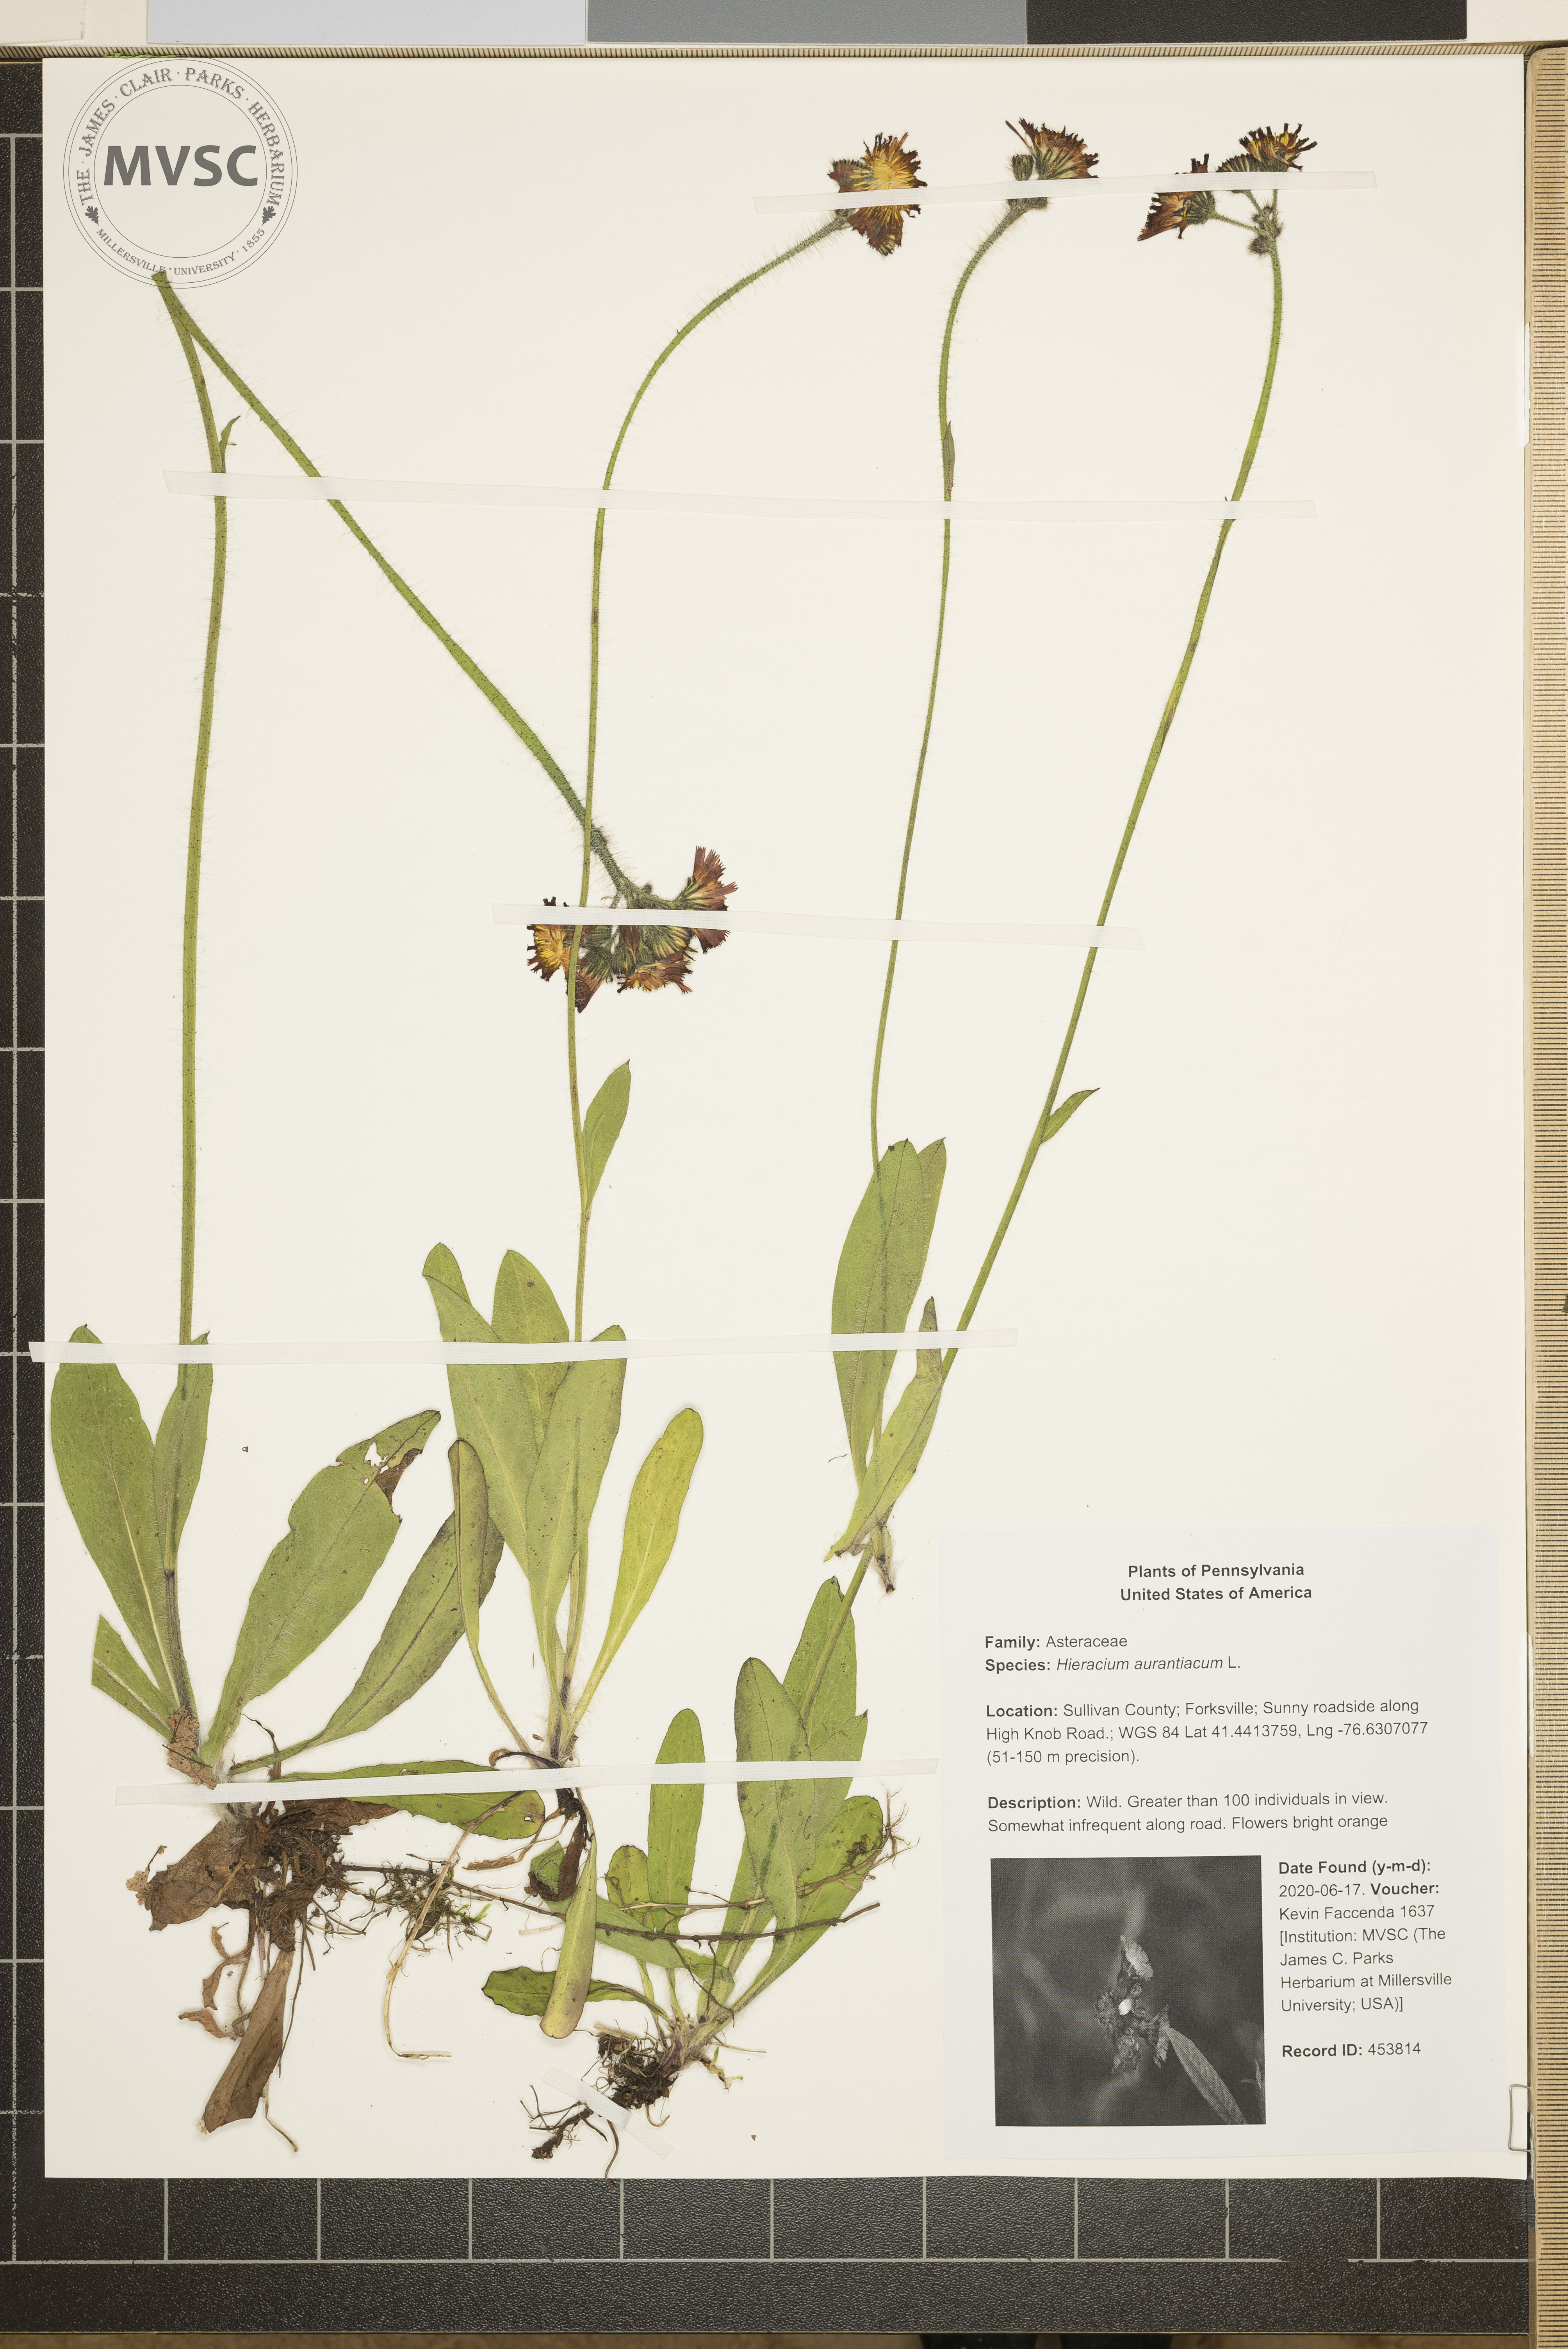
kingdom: Plantae
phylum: Tracheophyta
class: Magnoliopsida
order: Asterales
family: Asteraceae
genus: Pilosella
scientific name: Pilosella aurantiaca
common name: Fox-and-cubs
